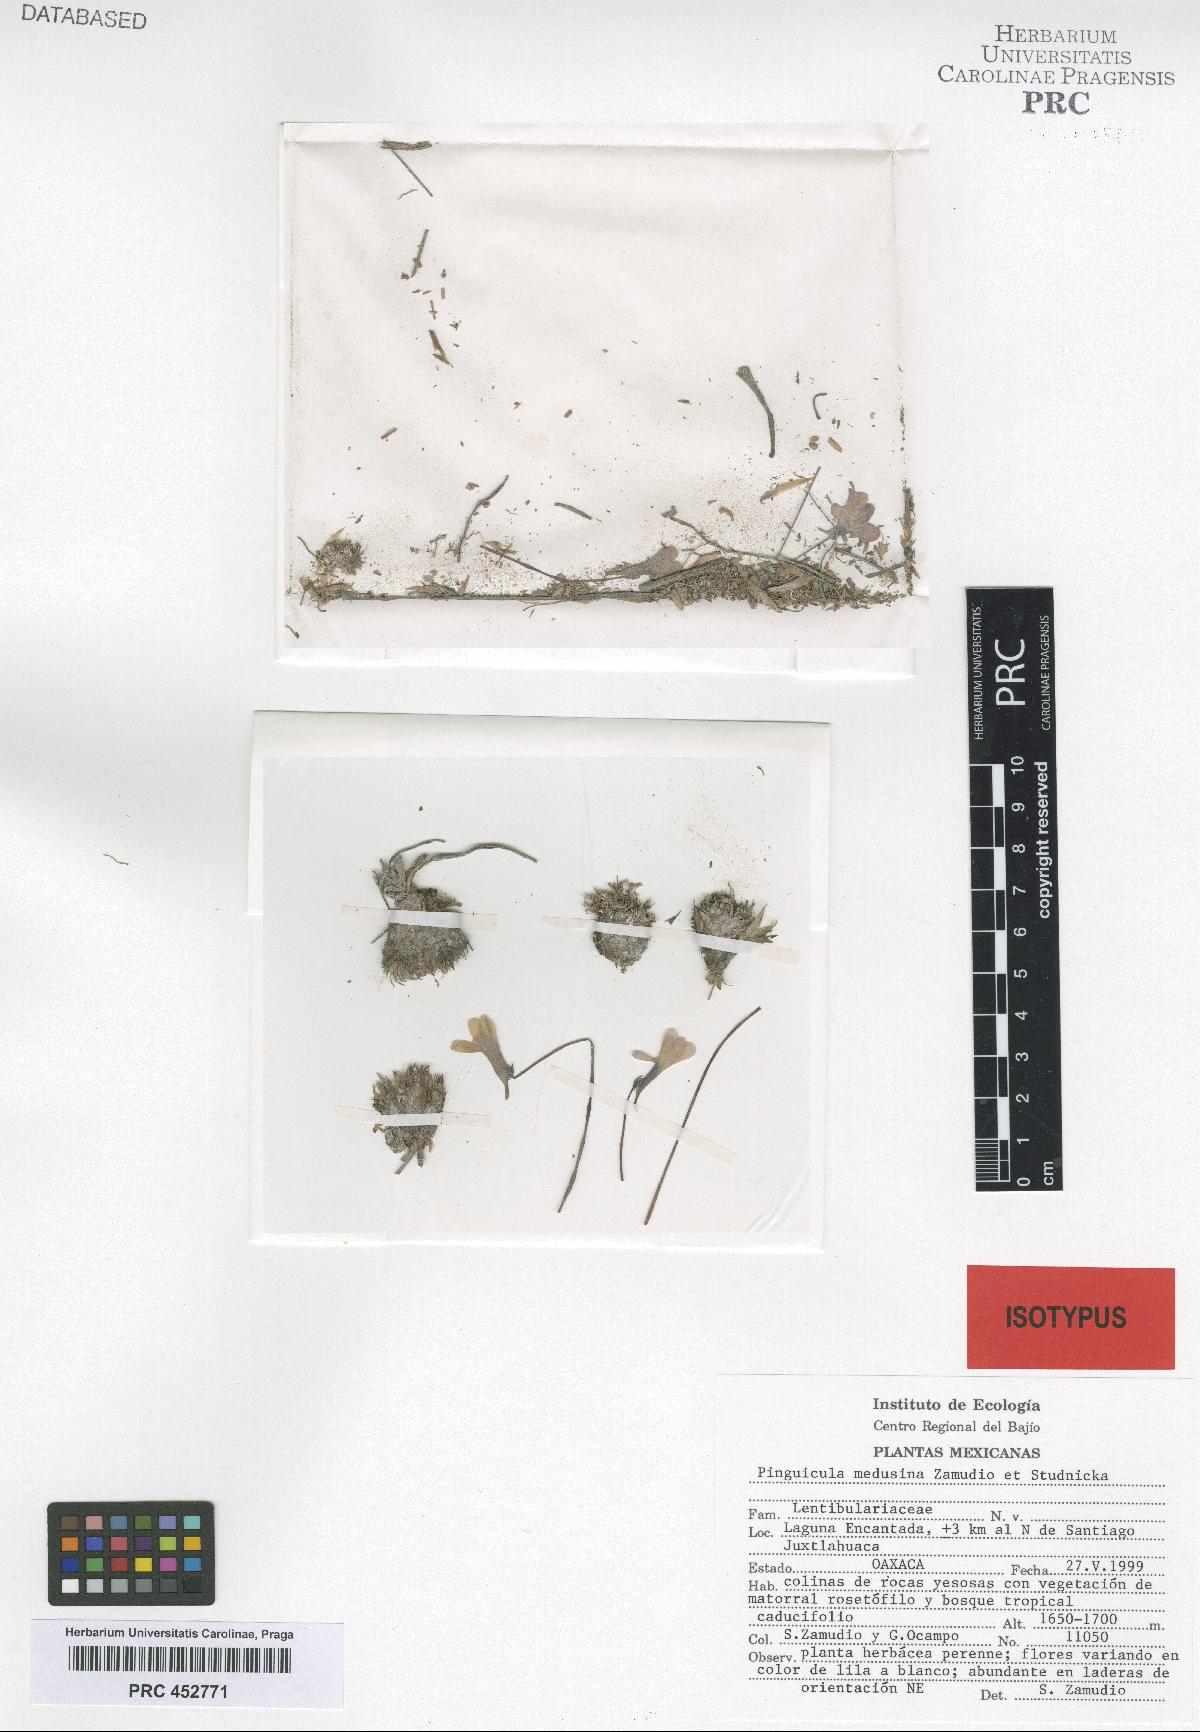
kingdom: Plantae
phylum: Tracheophyta
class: Magnoliopsida
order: Lamiales
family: Lentibulariaceae
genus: Pinguicula
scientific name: Pinguicula heterophylla
